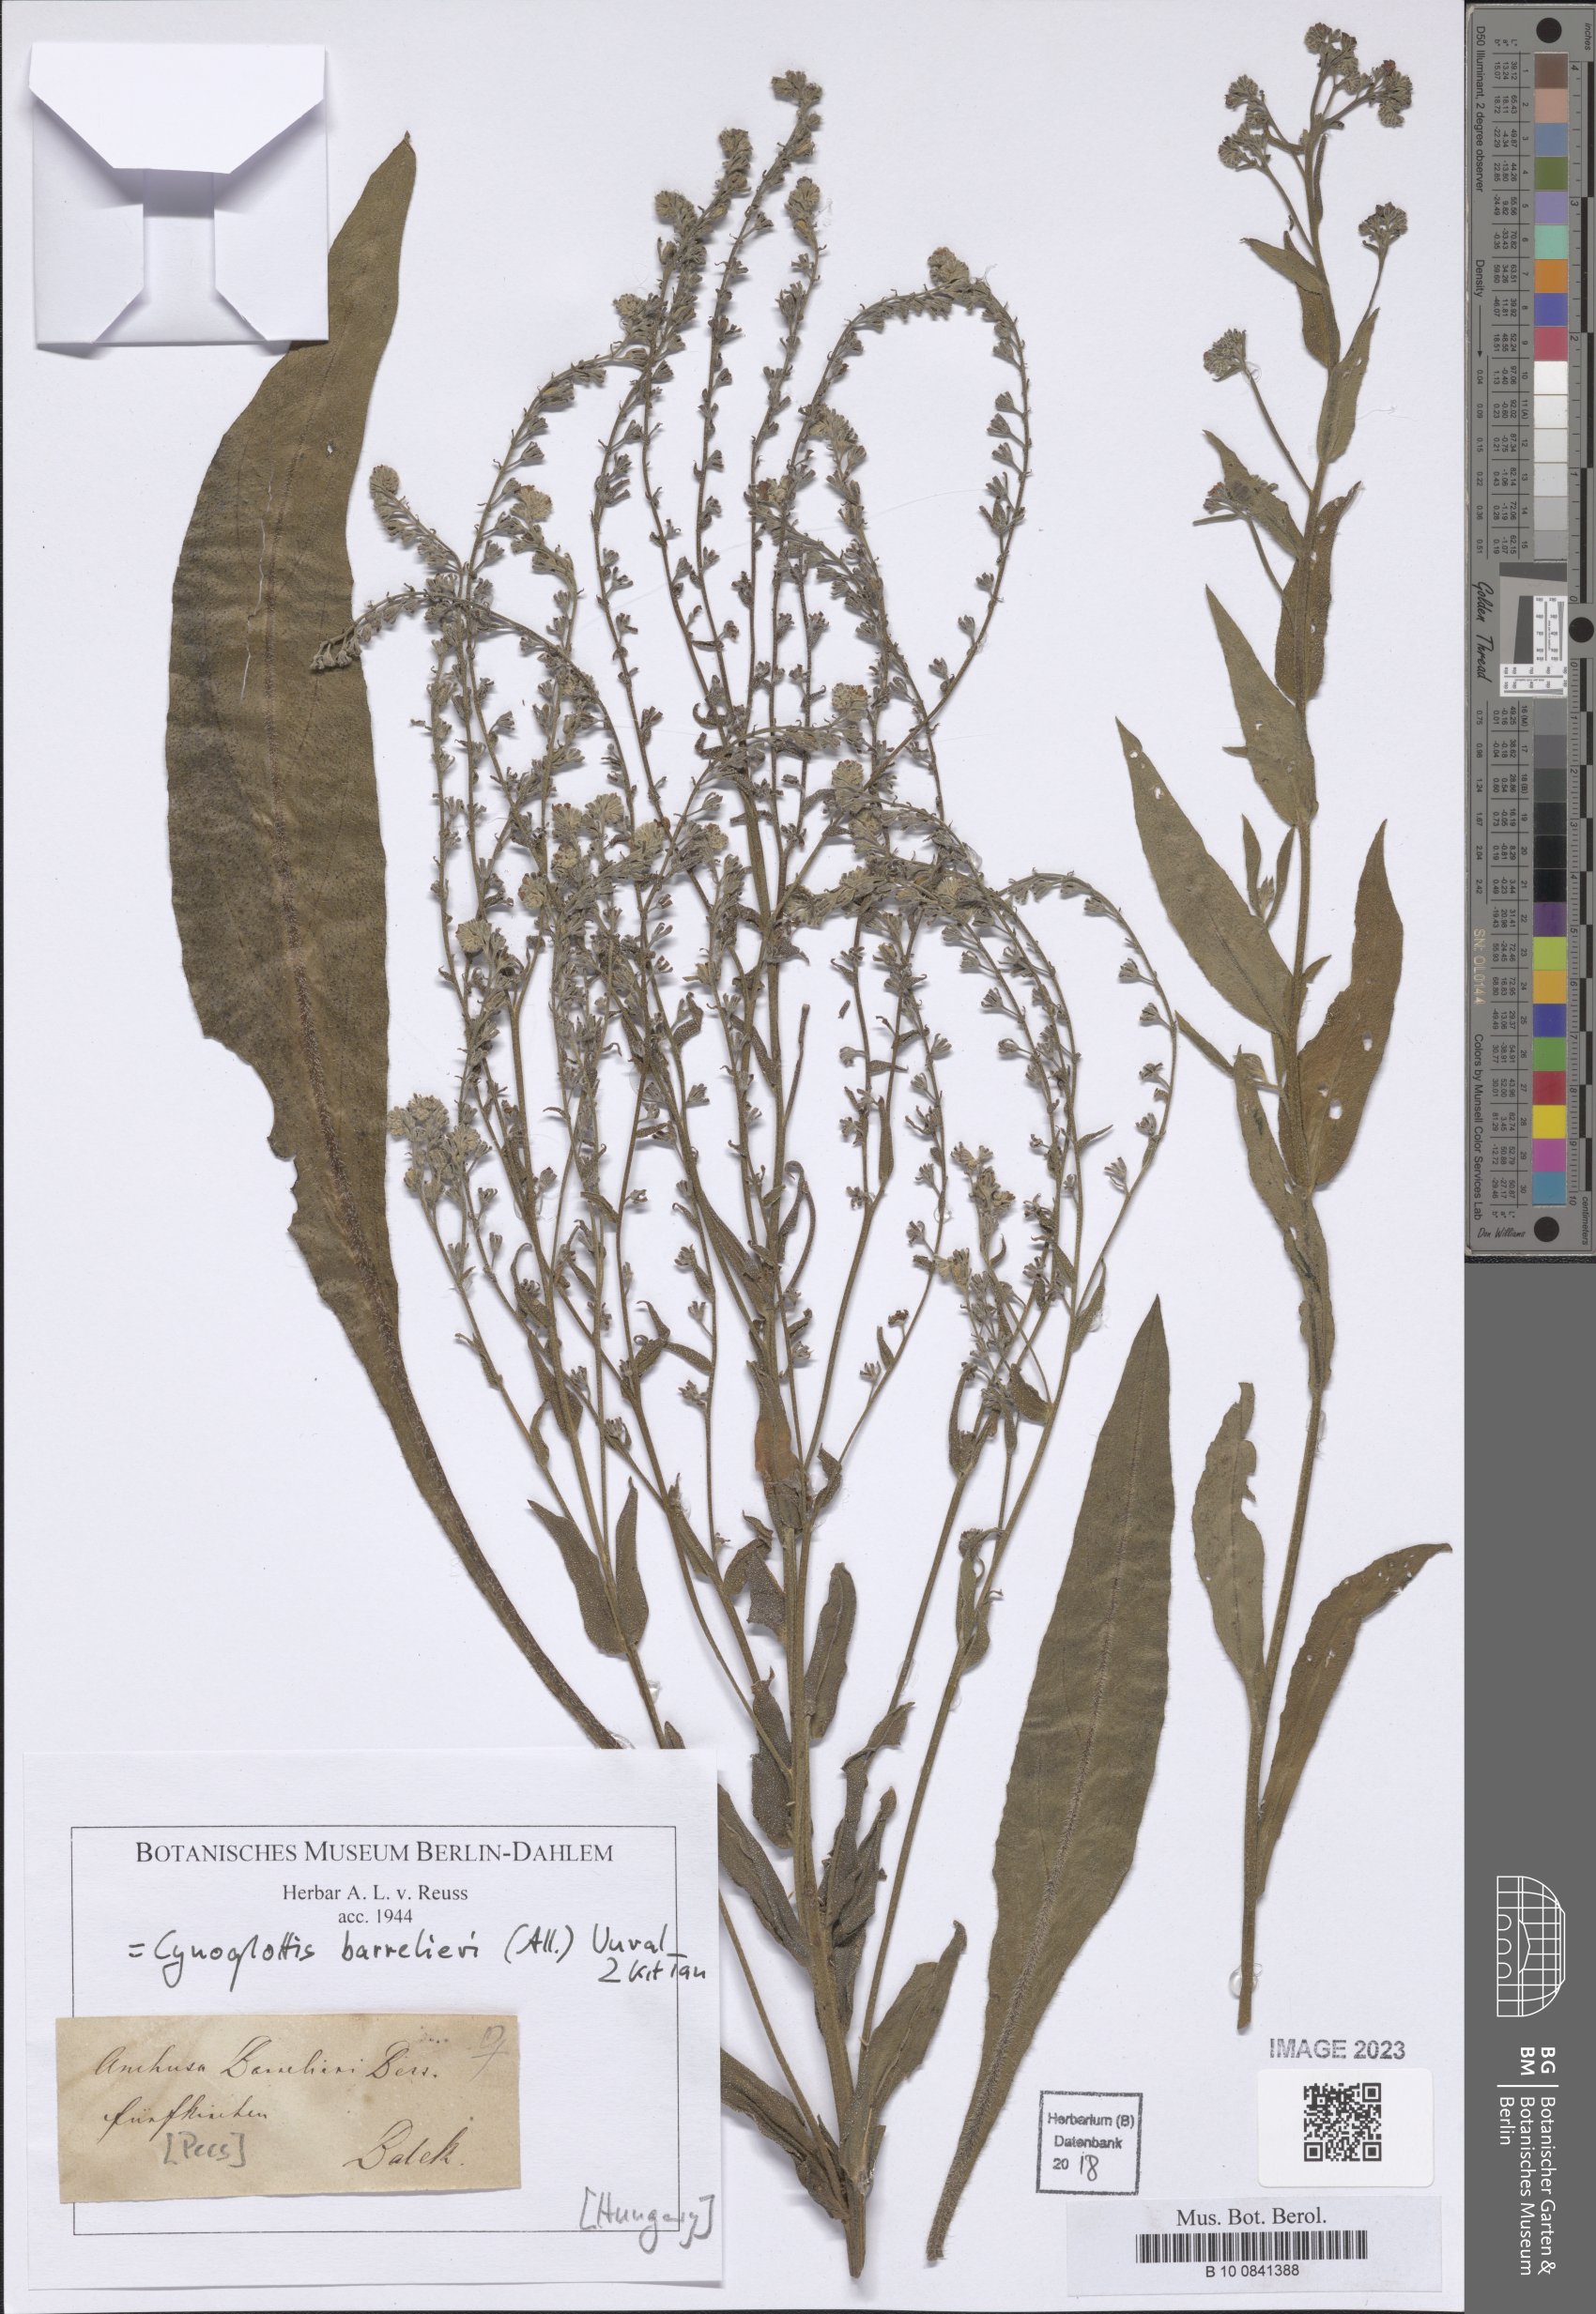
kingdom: Plantae
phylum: Tracheophyta
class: Magnoliopsida
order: Boraginales
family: Boraginaceae
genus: Cynoglottis
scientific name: Cynoglottis barrelieri
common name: False alkanet
